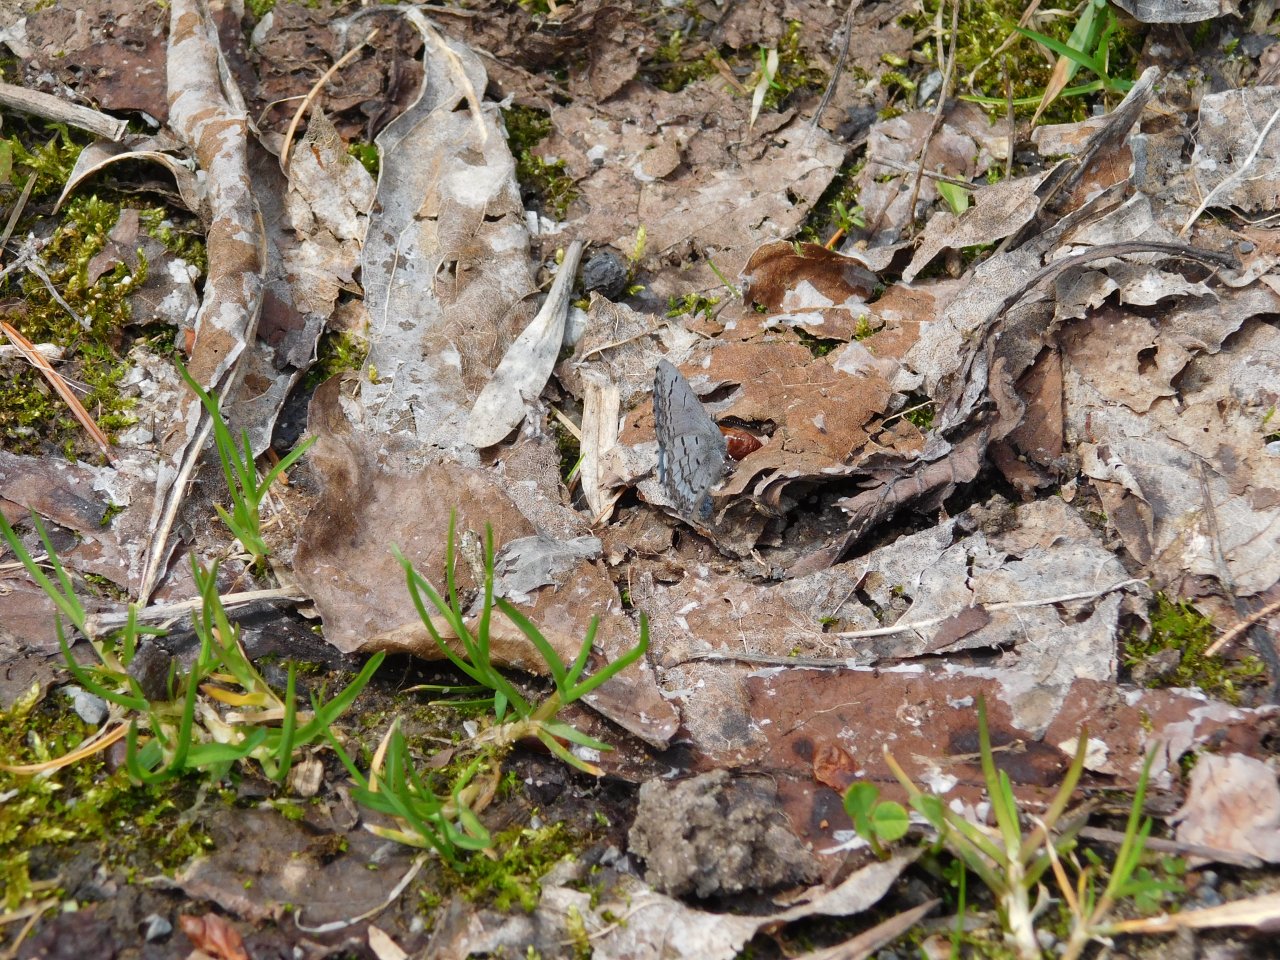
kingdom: Animalia
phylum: Arthropoda
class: Insecta
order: Lepidoptera
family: Lycaenidae
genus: Celastrina
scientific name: Celastrina lucia
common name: Northern Spring Azure
